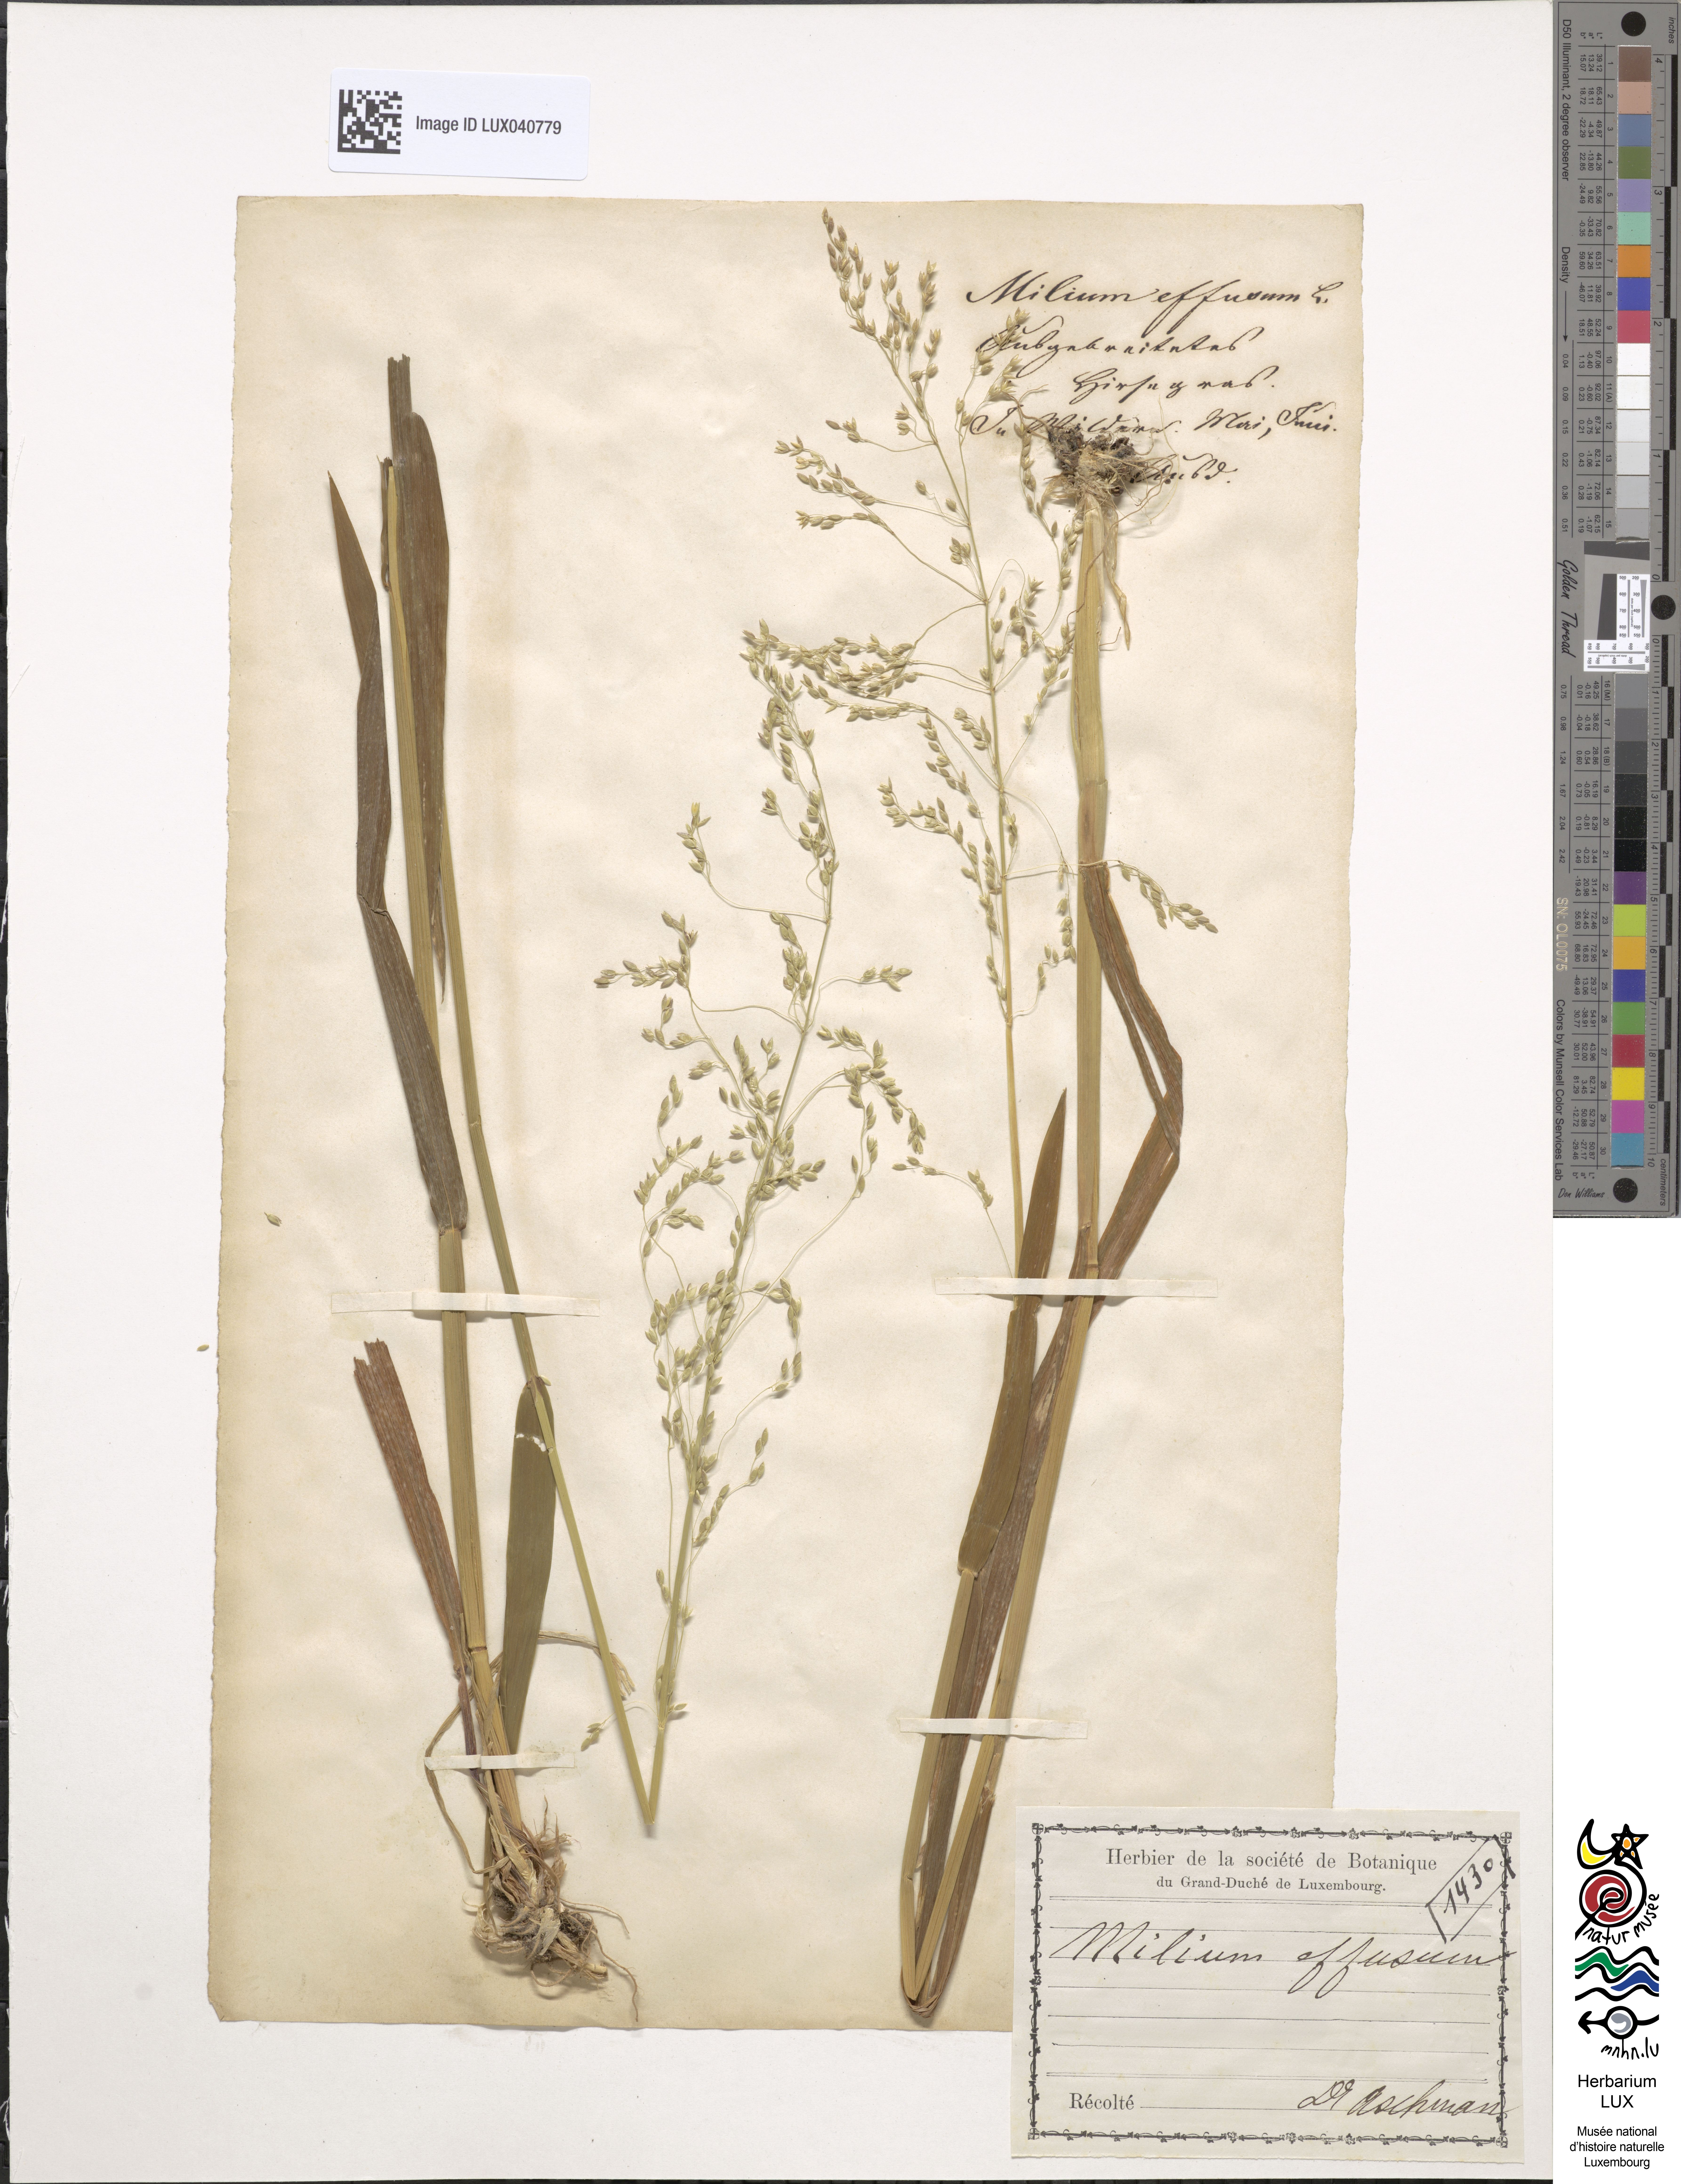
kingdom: Plantae
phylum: Tracheophyta
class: Liliopsida
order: Poales
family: Poaceae
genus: Milium
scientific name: Milium effusum
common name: Wood millet
